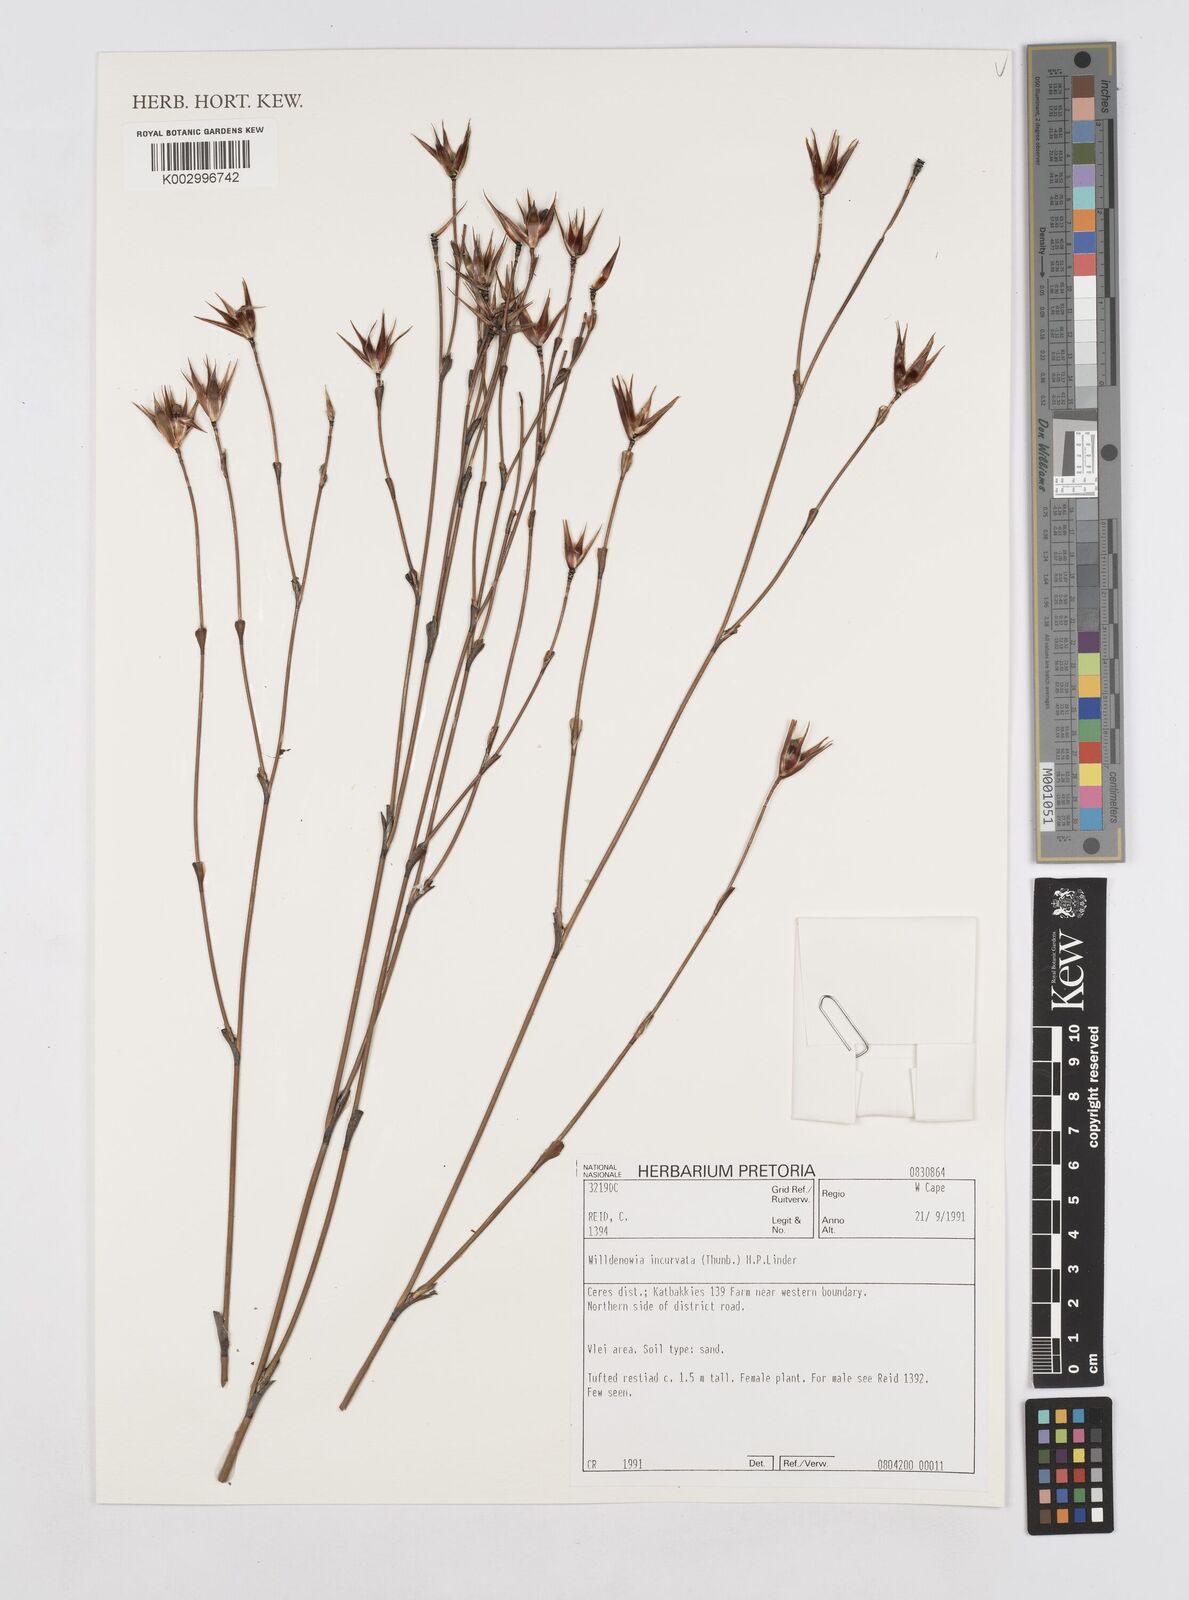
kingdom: Plantae
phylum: Tracheophyta
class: Liliopsida
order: Poales
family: Restionaceae
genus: Willdenowia
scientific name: Willdenowia incurvata
